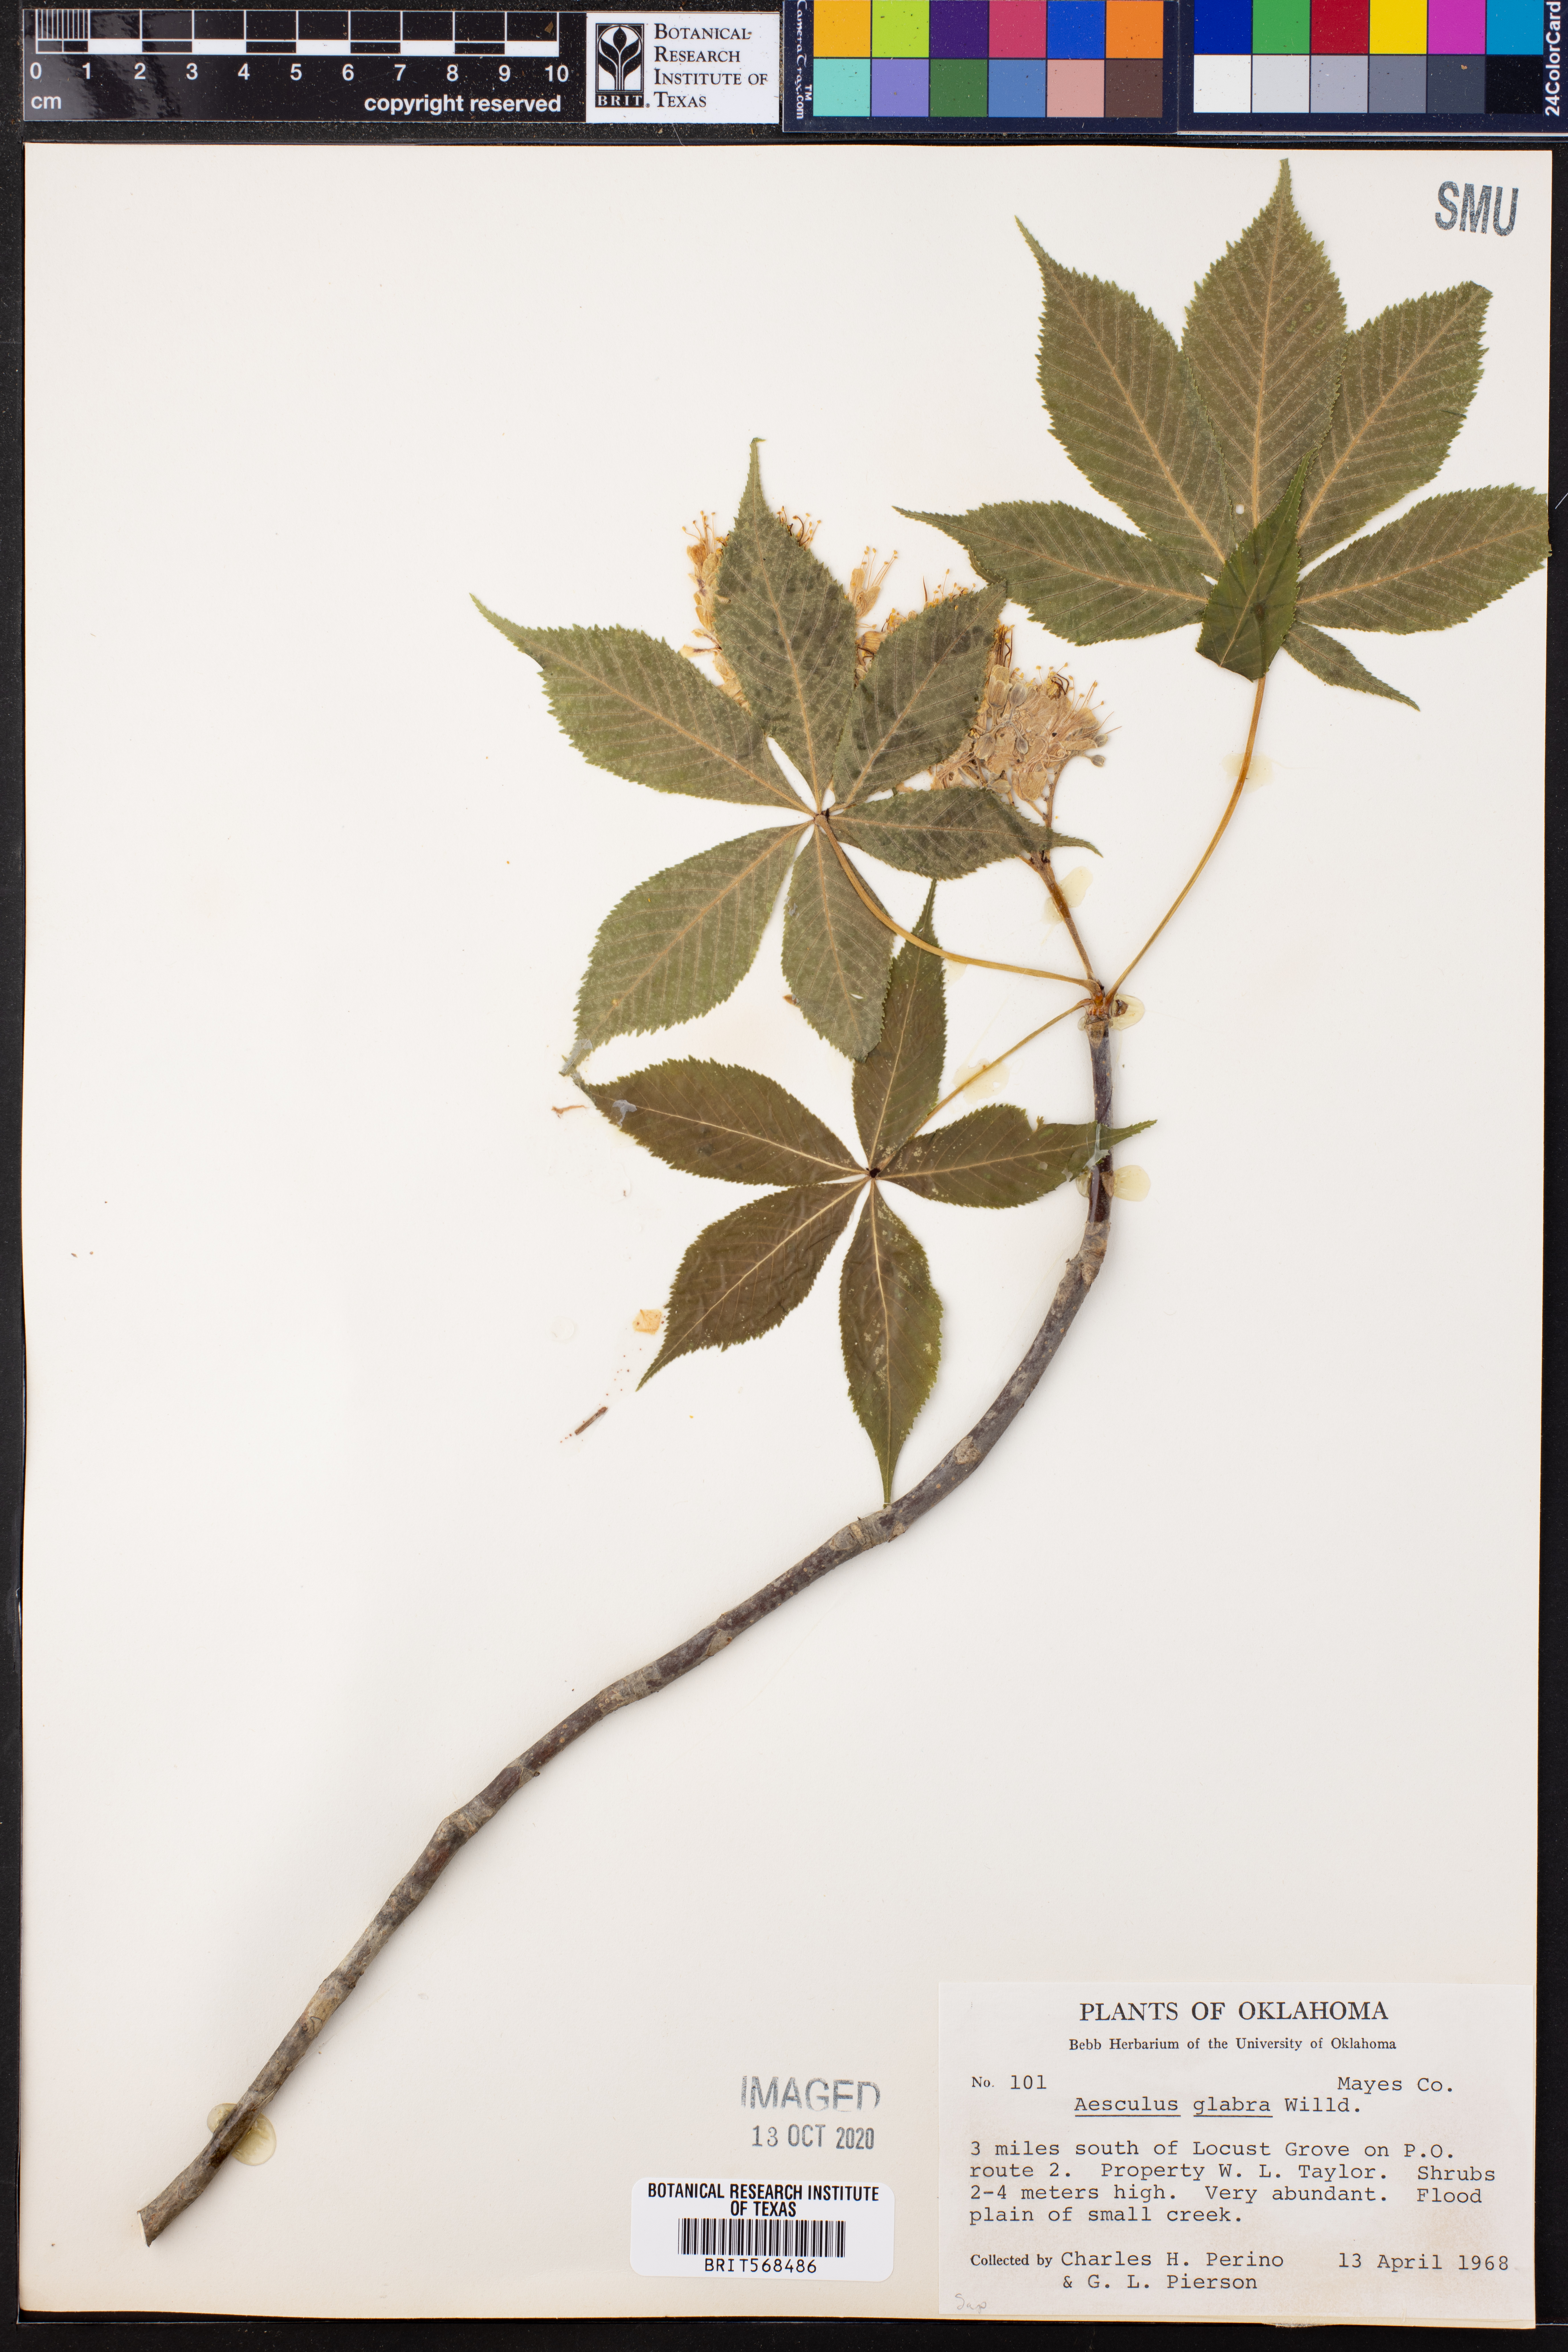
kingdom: Plantae
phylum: Tracheophyta
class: Magnoliopsida
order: Sapindales
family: Sapindaceae
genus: Aesculus
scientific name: Aesculus glabra
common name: Ohio buckeye
